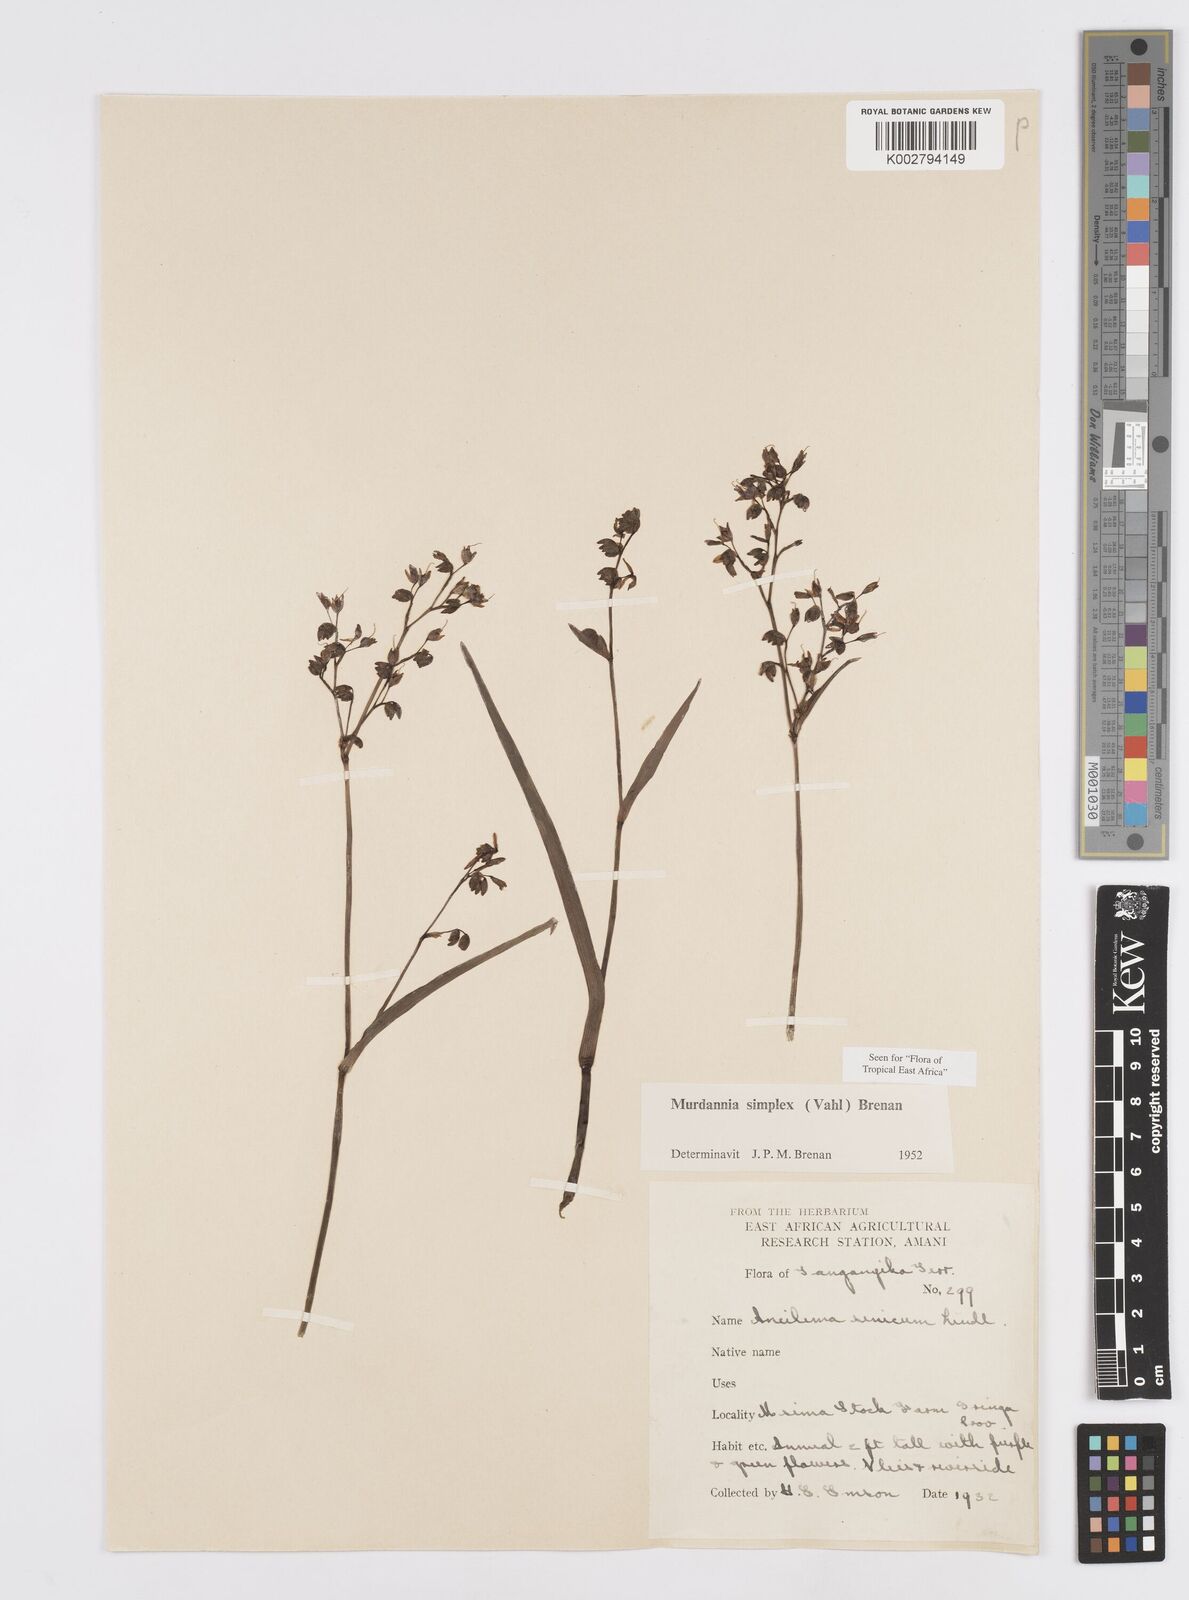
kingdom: Plantae
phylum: Tracheophyta
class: Liliopsida
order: Commelinales
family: Commelinaceae
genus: Murdannia
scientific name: Murdannia simplex
